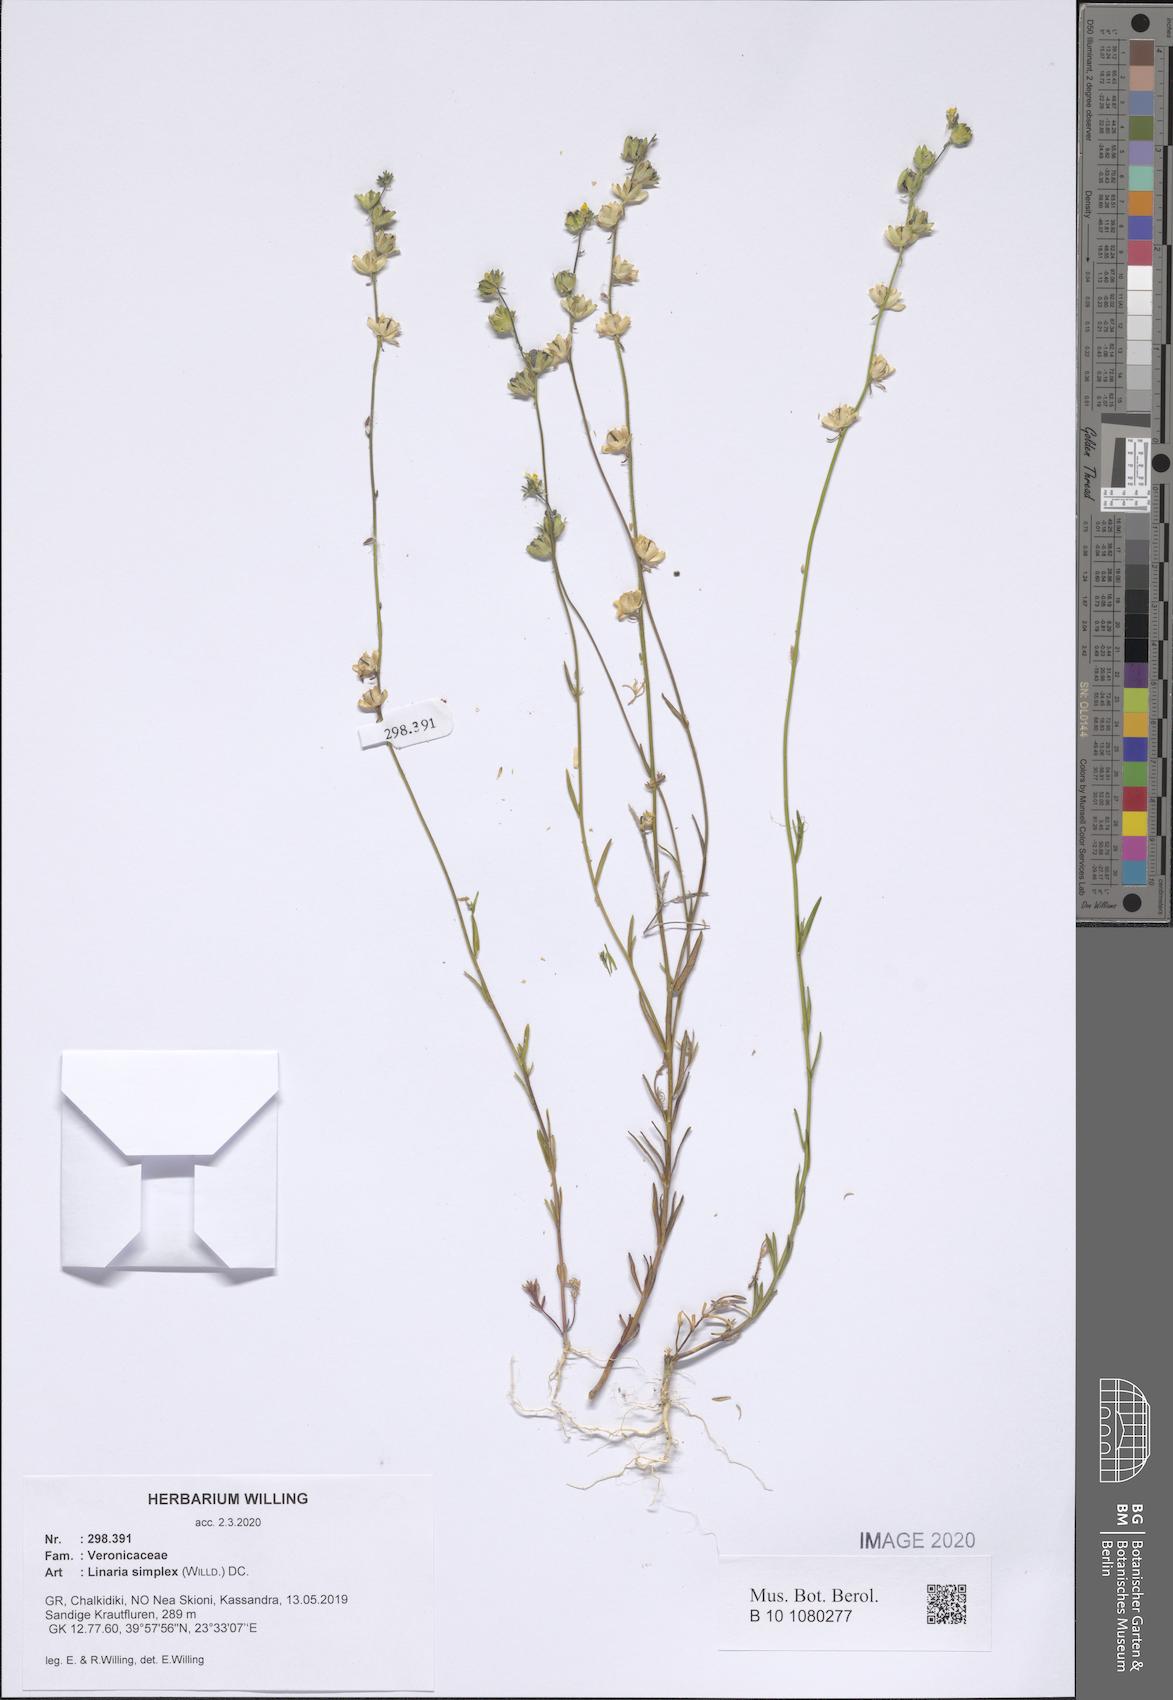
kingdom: Plantae
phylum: Tracheophyta
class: Magnoliopsida
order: Lamiales
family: Plantaginaceae
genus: Linaria
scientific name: Linaria simplex
